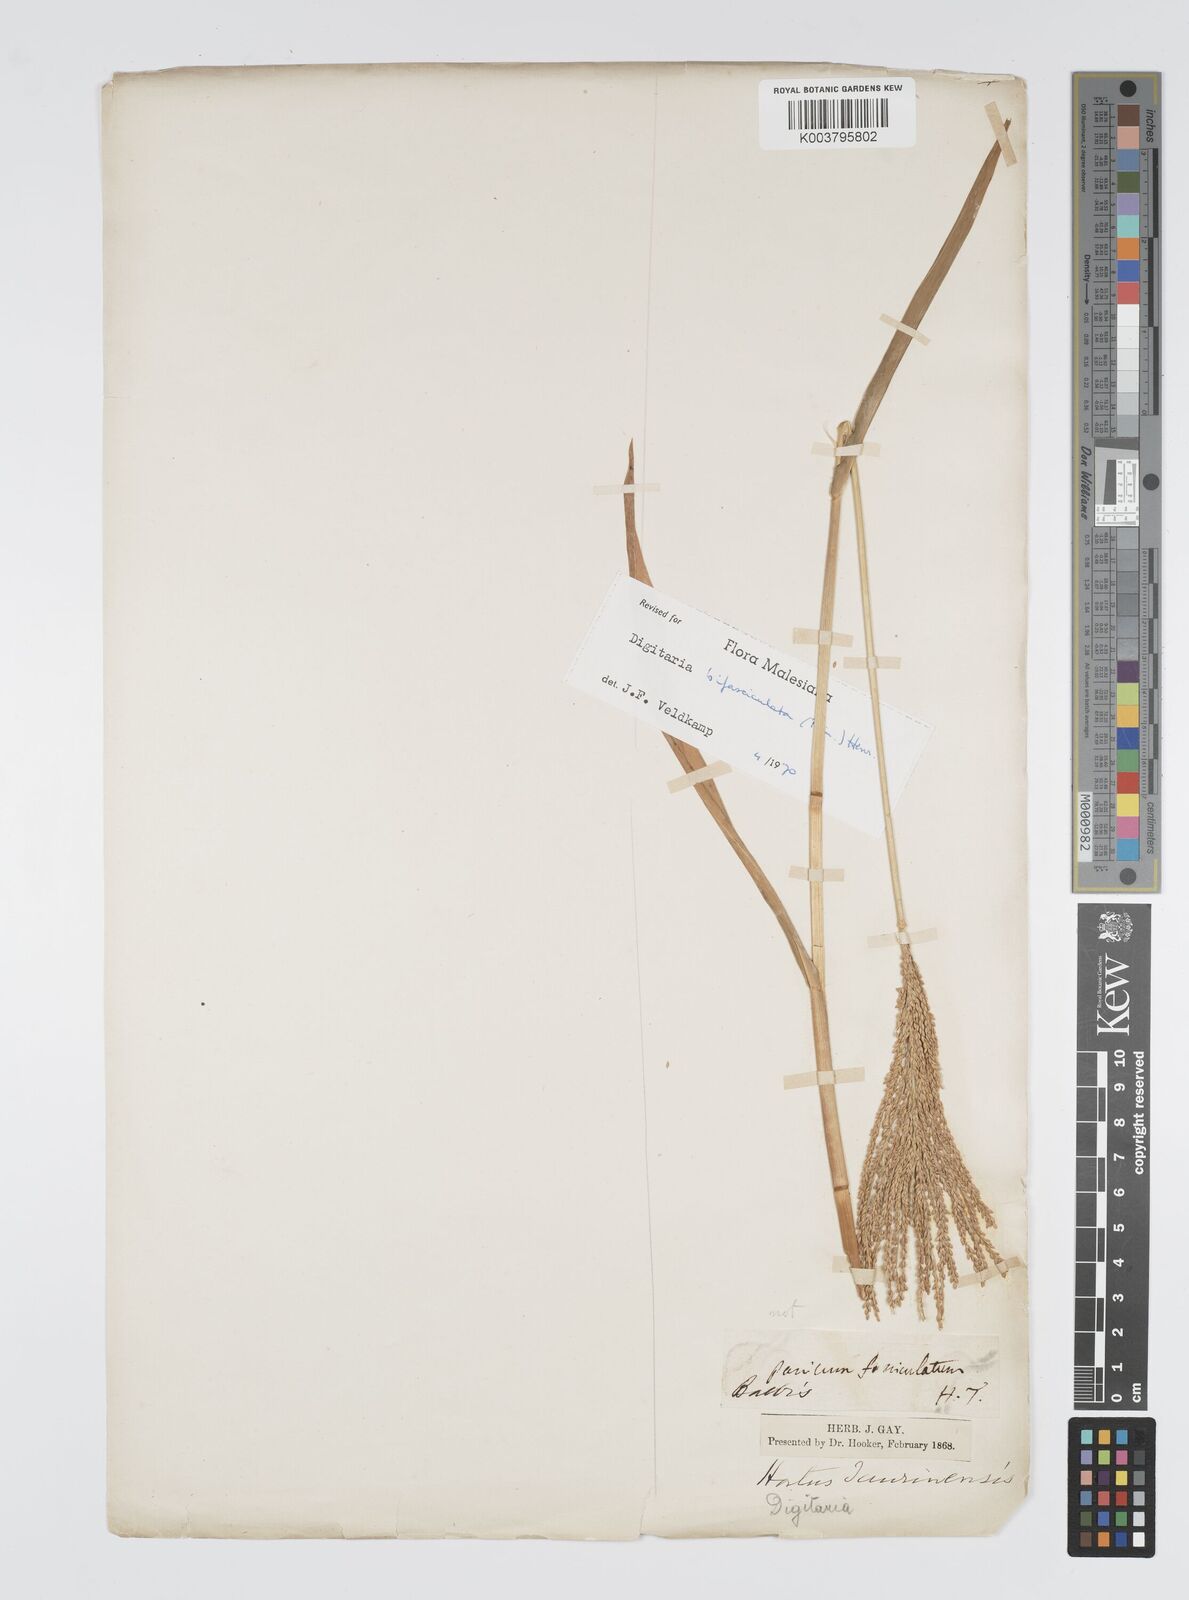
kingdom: Plantae
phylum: Tracheophyta
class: Liliopsida
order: Poales
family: Poaceae
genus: Digitaria
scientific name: Digitaria compacta
